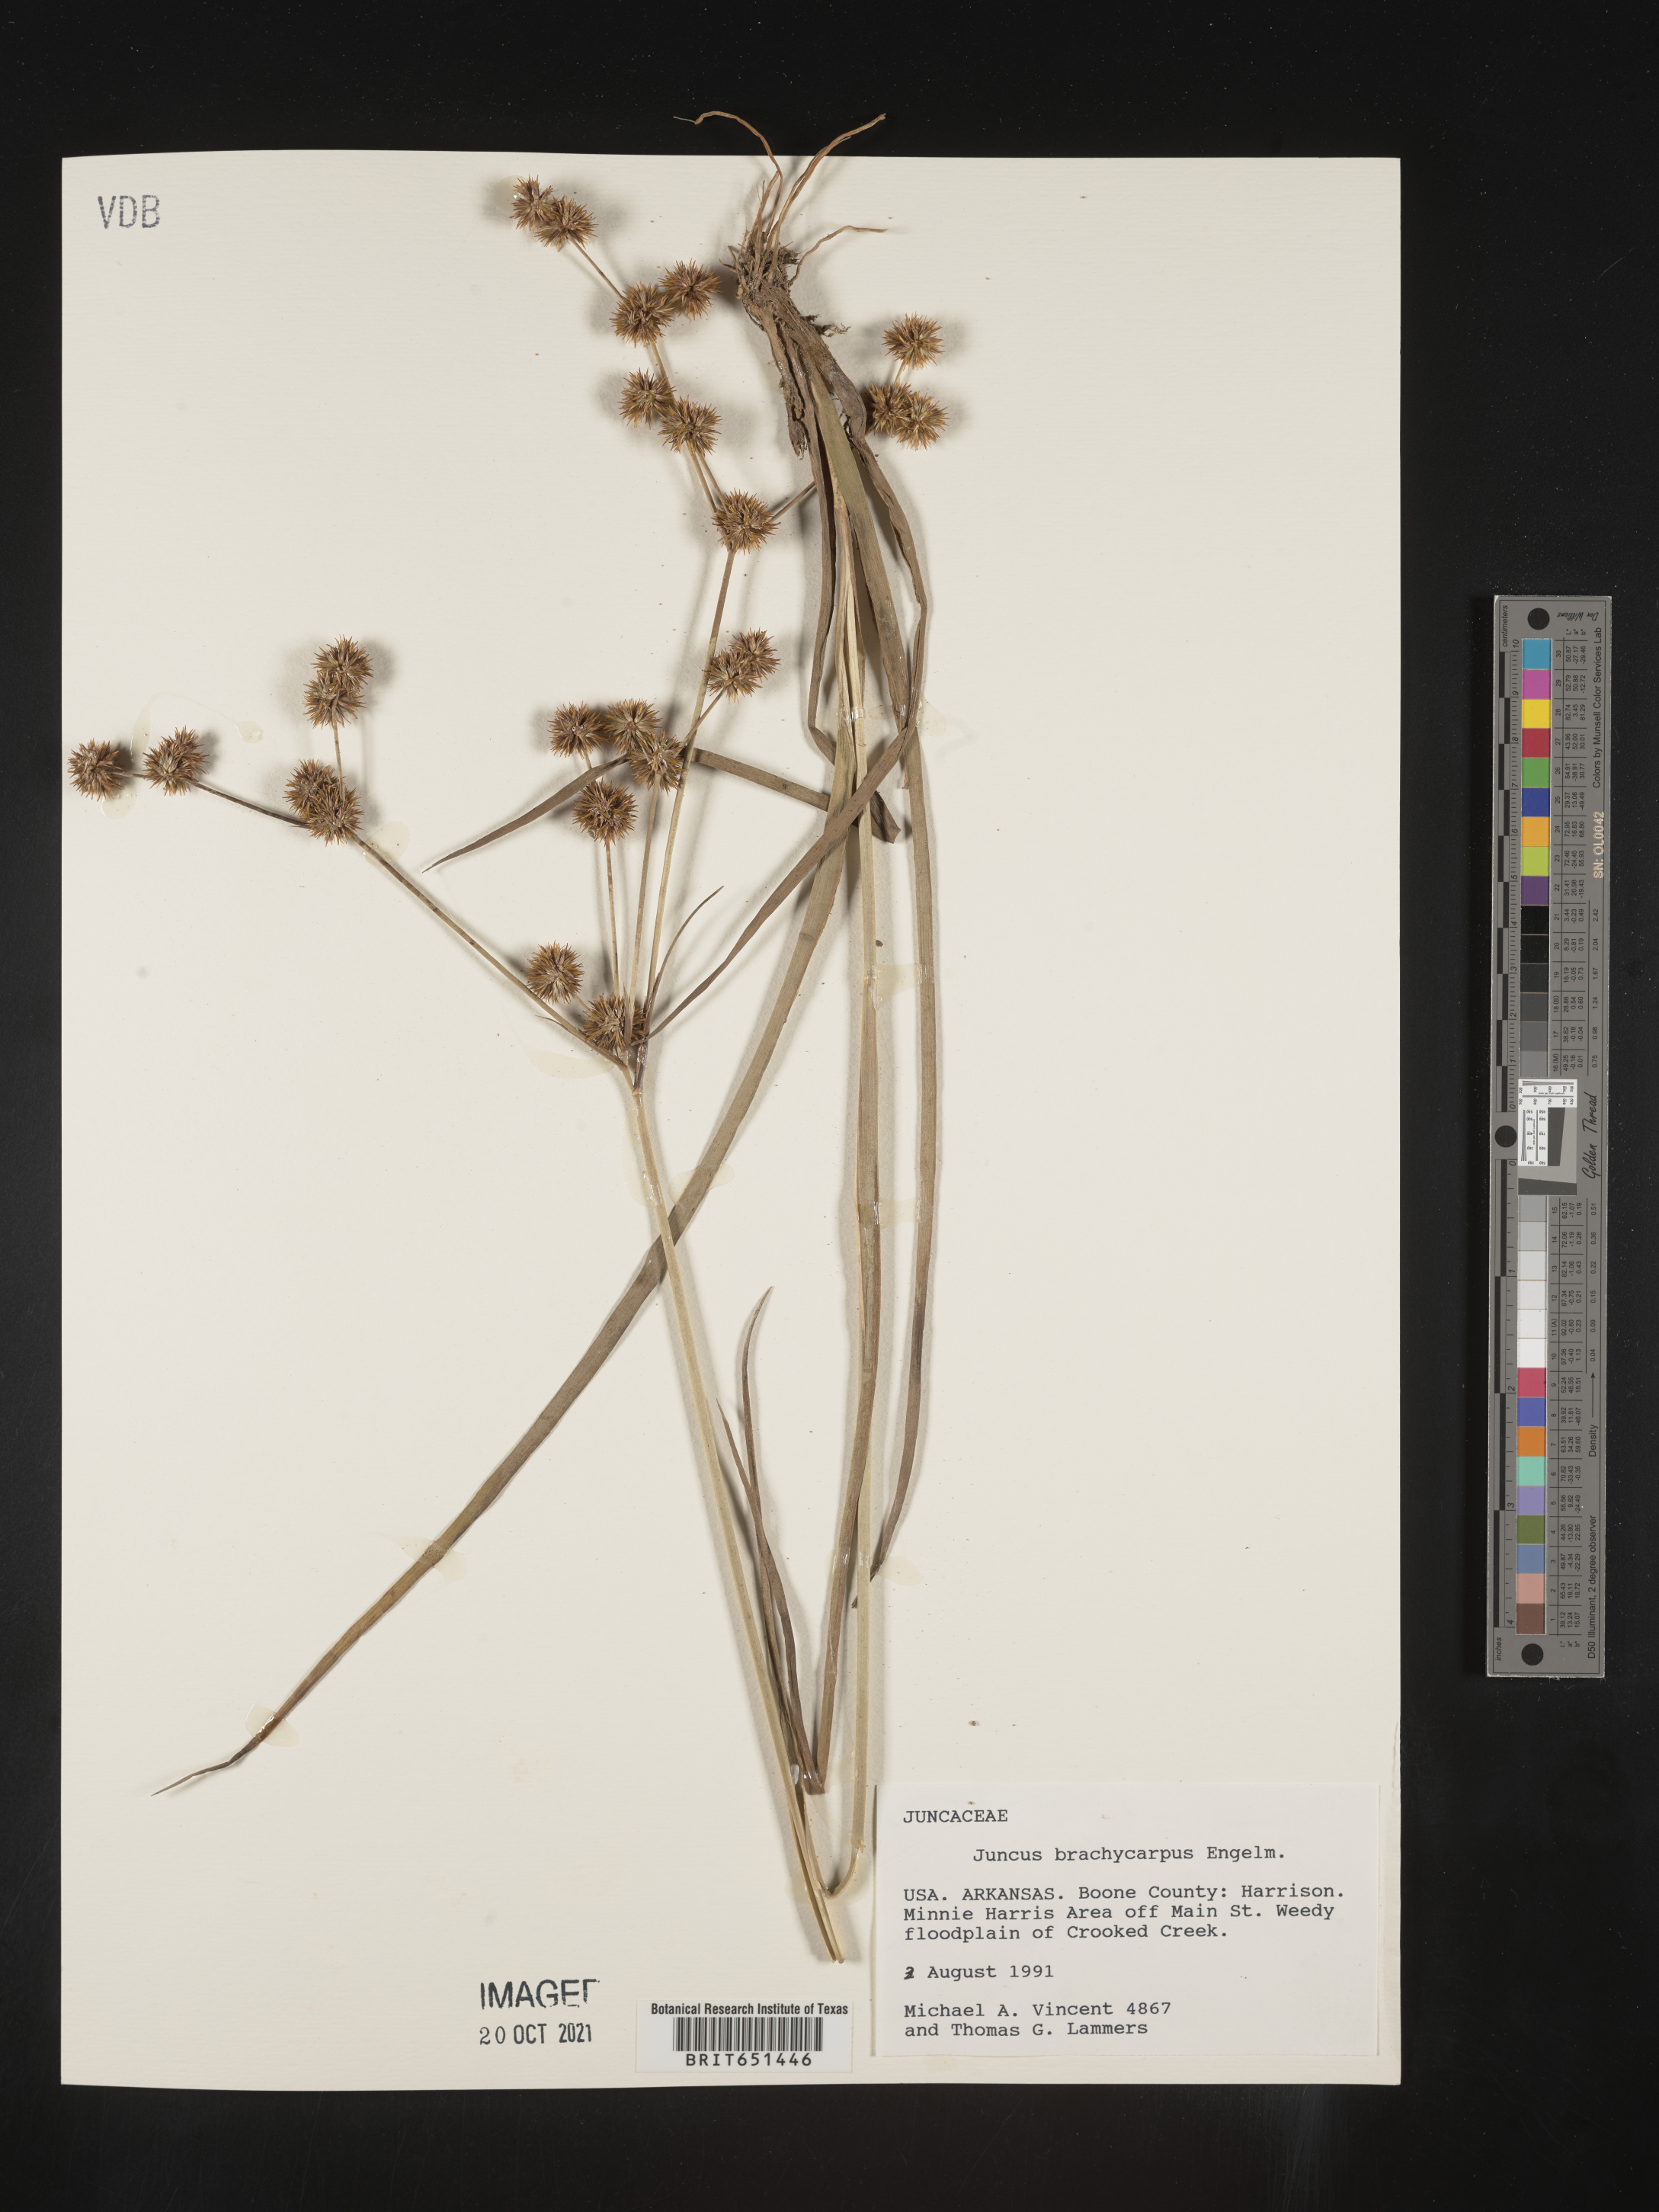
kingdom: Plantae
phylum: Tracheophyta
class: Liliopsida
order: Poales
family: Juncaceae
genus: Juncus
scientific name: Juncus brachycarpus
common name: Shore rush
